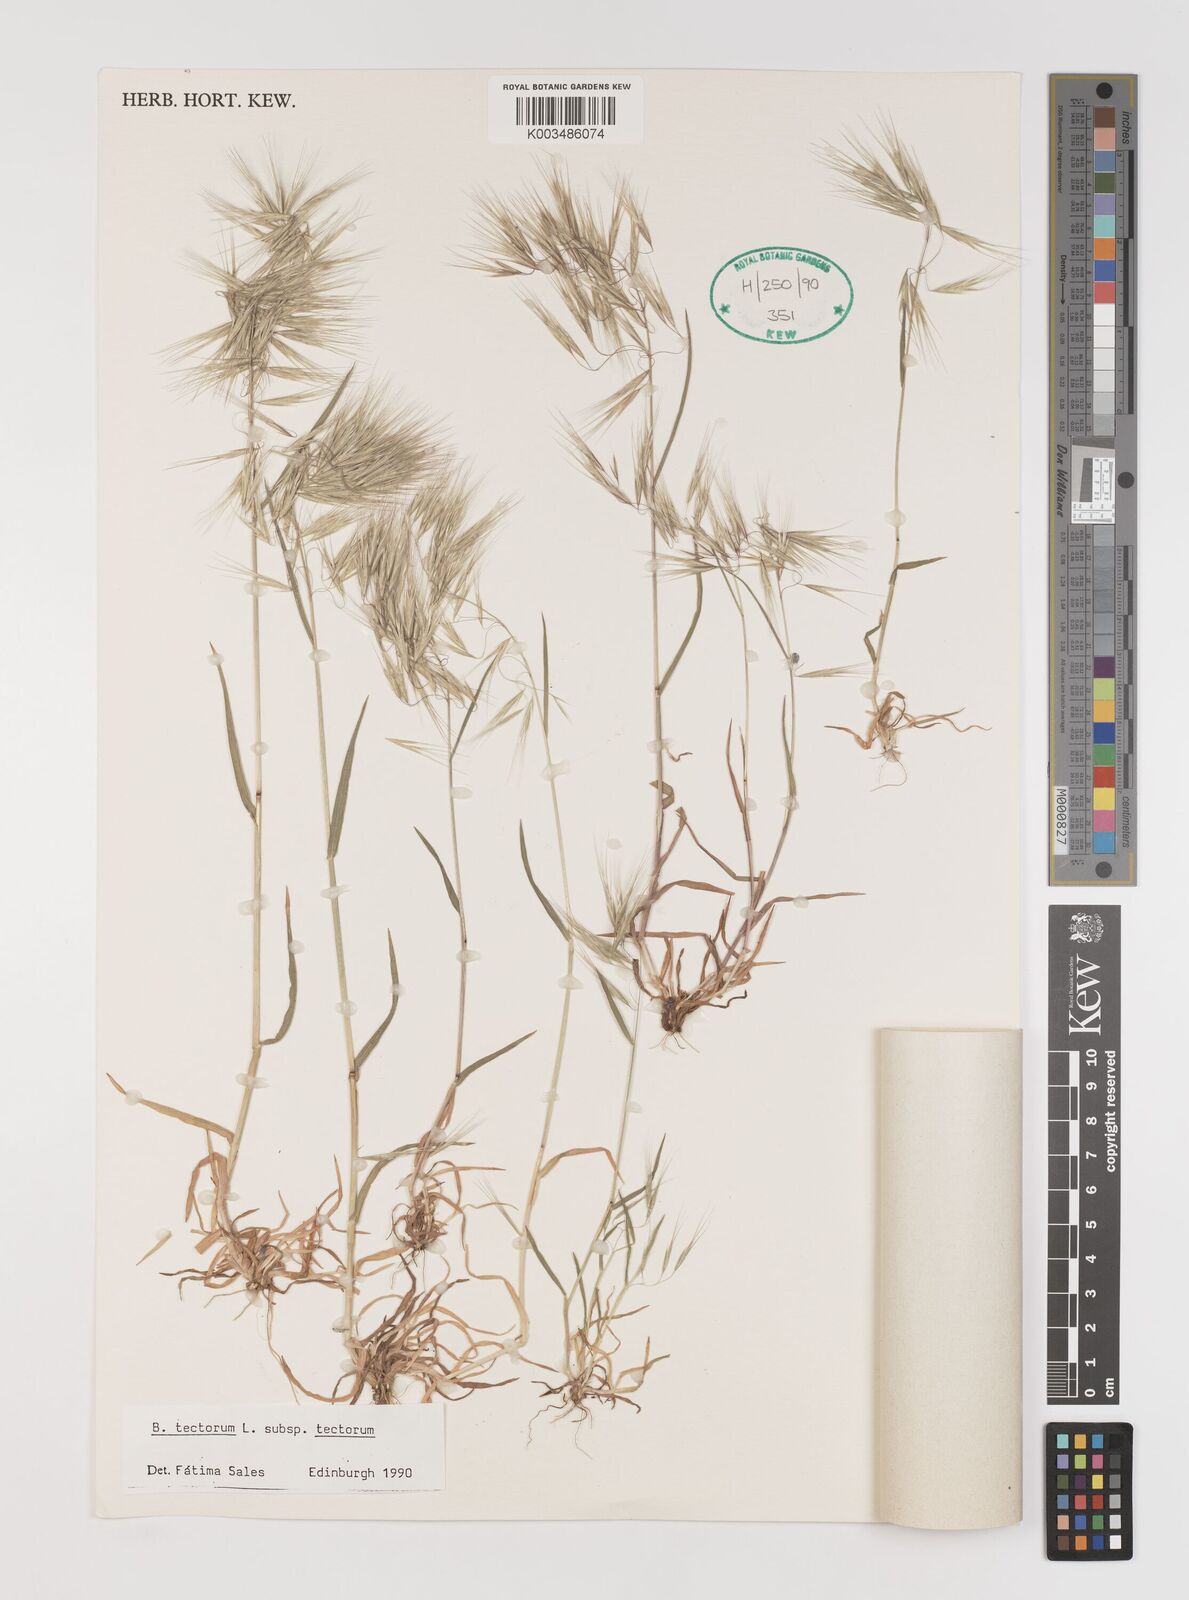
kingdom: Plantae
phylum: Tracheophyta
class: Liliopsida
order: Poales
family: Poaceae
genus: Bromus
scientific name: Bromus tectorum
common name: Cheatgrass
